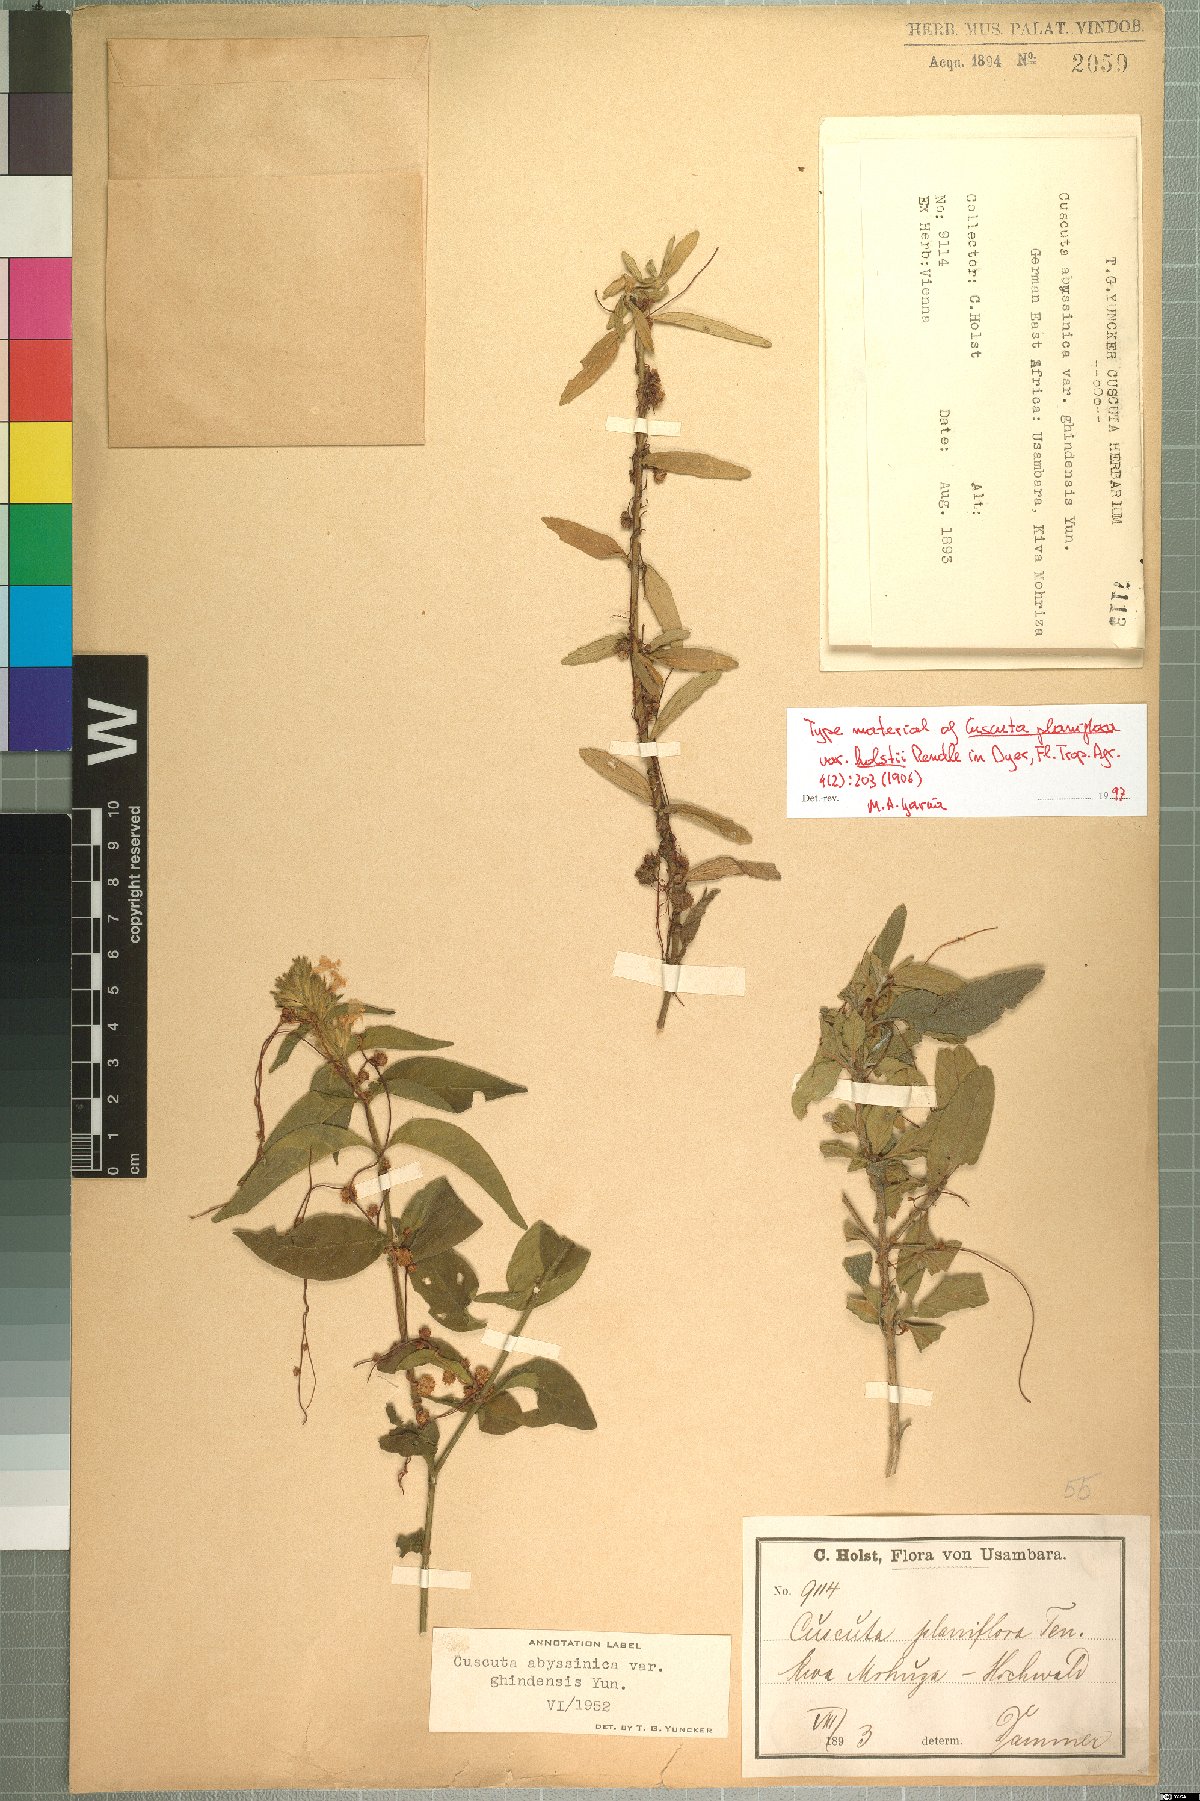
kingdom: Plantae
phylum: Tracheophyta
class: Magnoliopsida
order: Solanales
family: Convolvulaceae
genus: Cuscuta
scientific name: Cuscuta
